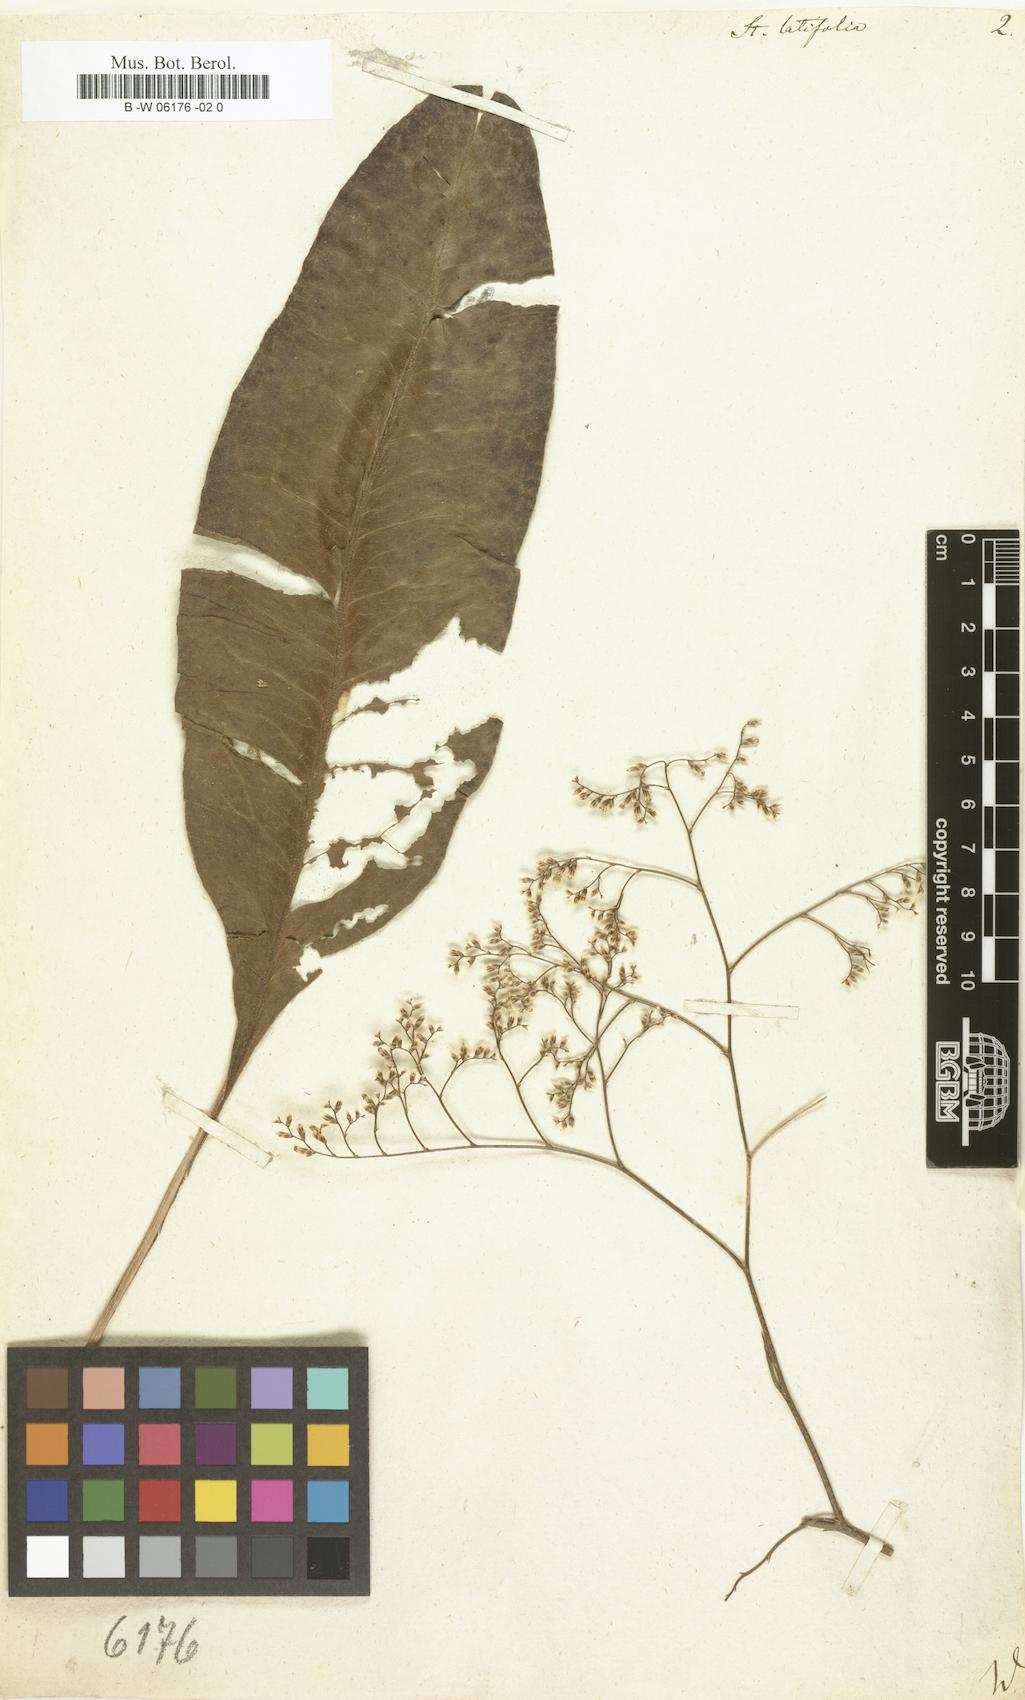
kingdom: Plantae
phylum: Tracheophyta
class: Magnoliopsida
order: Caryophyllales
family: Plumbaginaceae
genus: Limonium
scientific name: Limonium platyphyllum
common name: Florist's sea lavender
